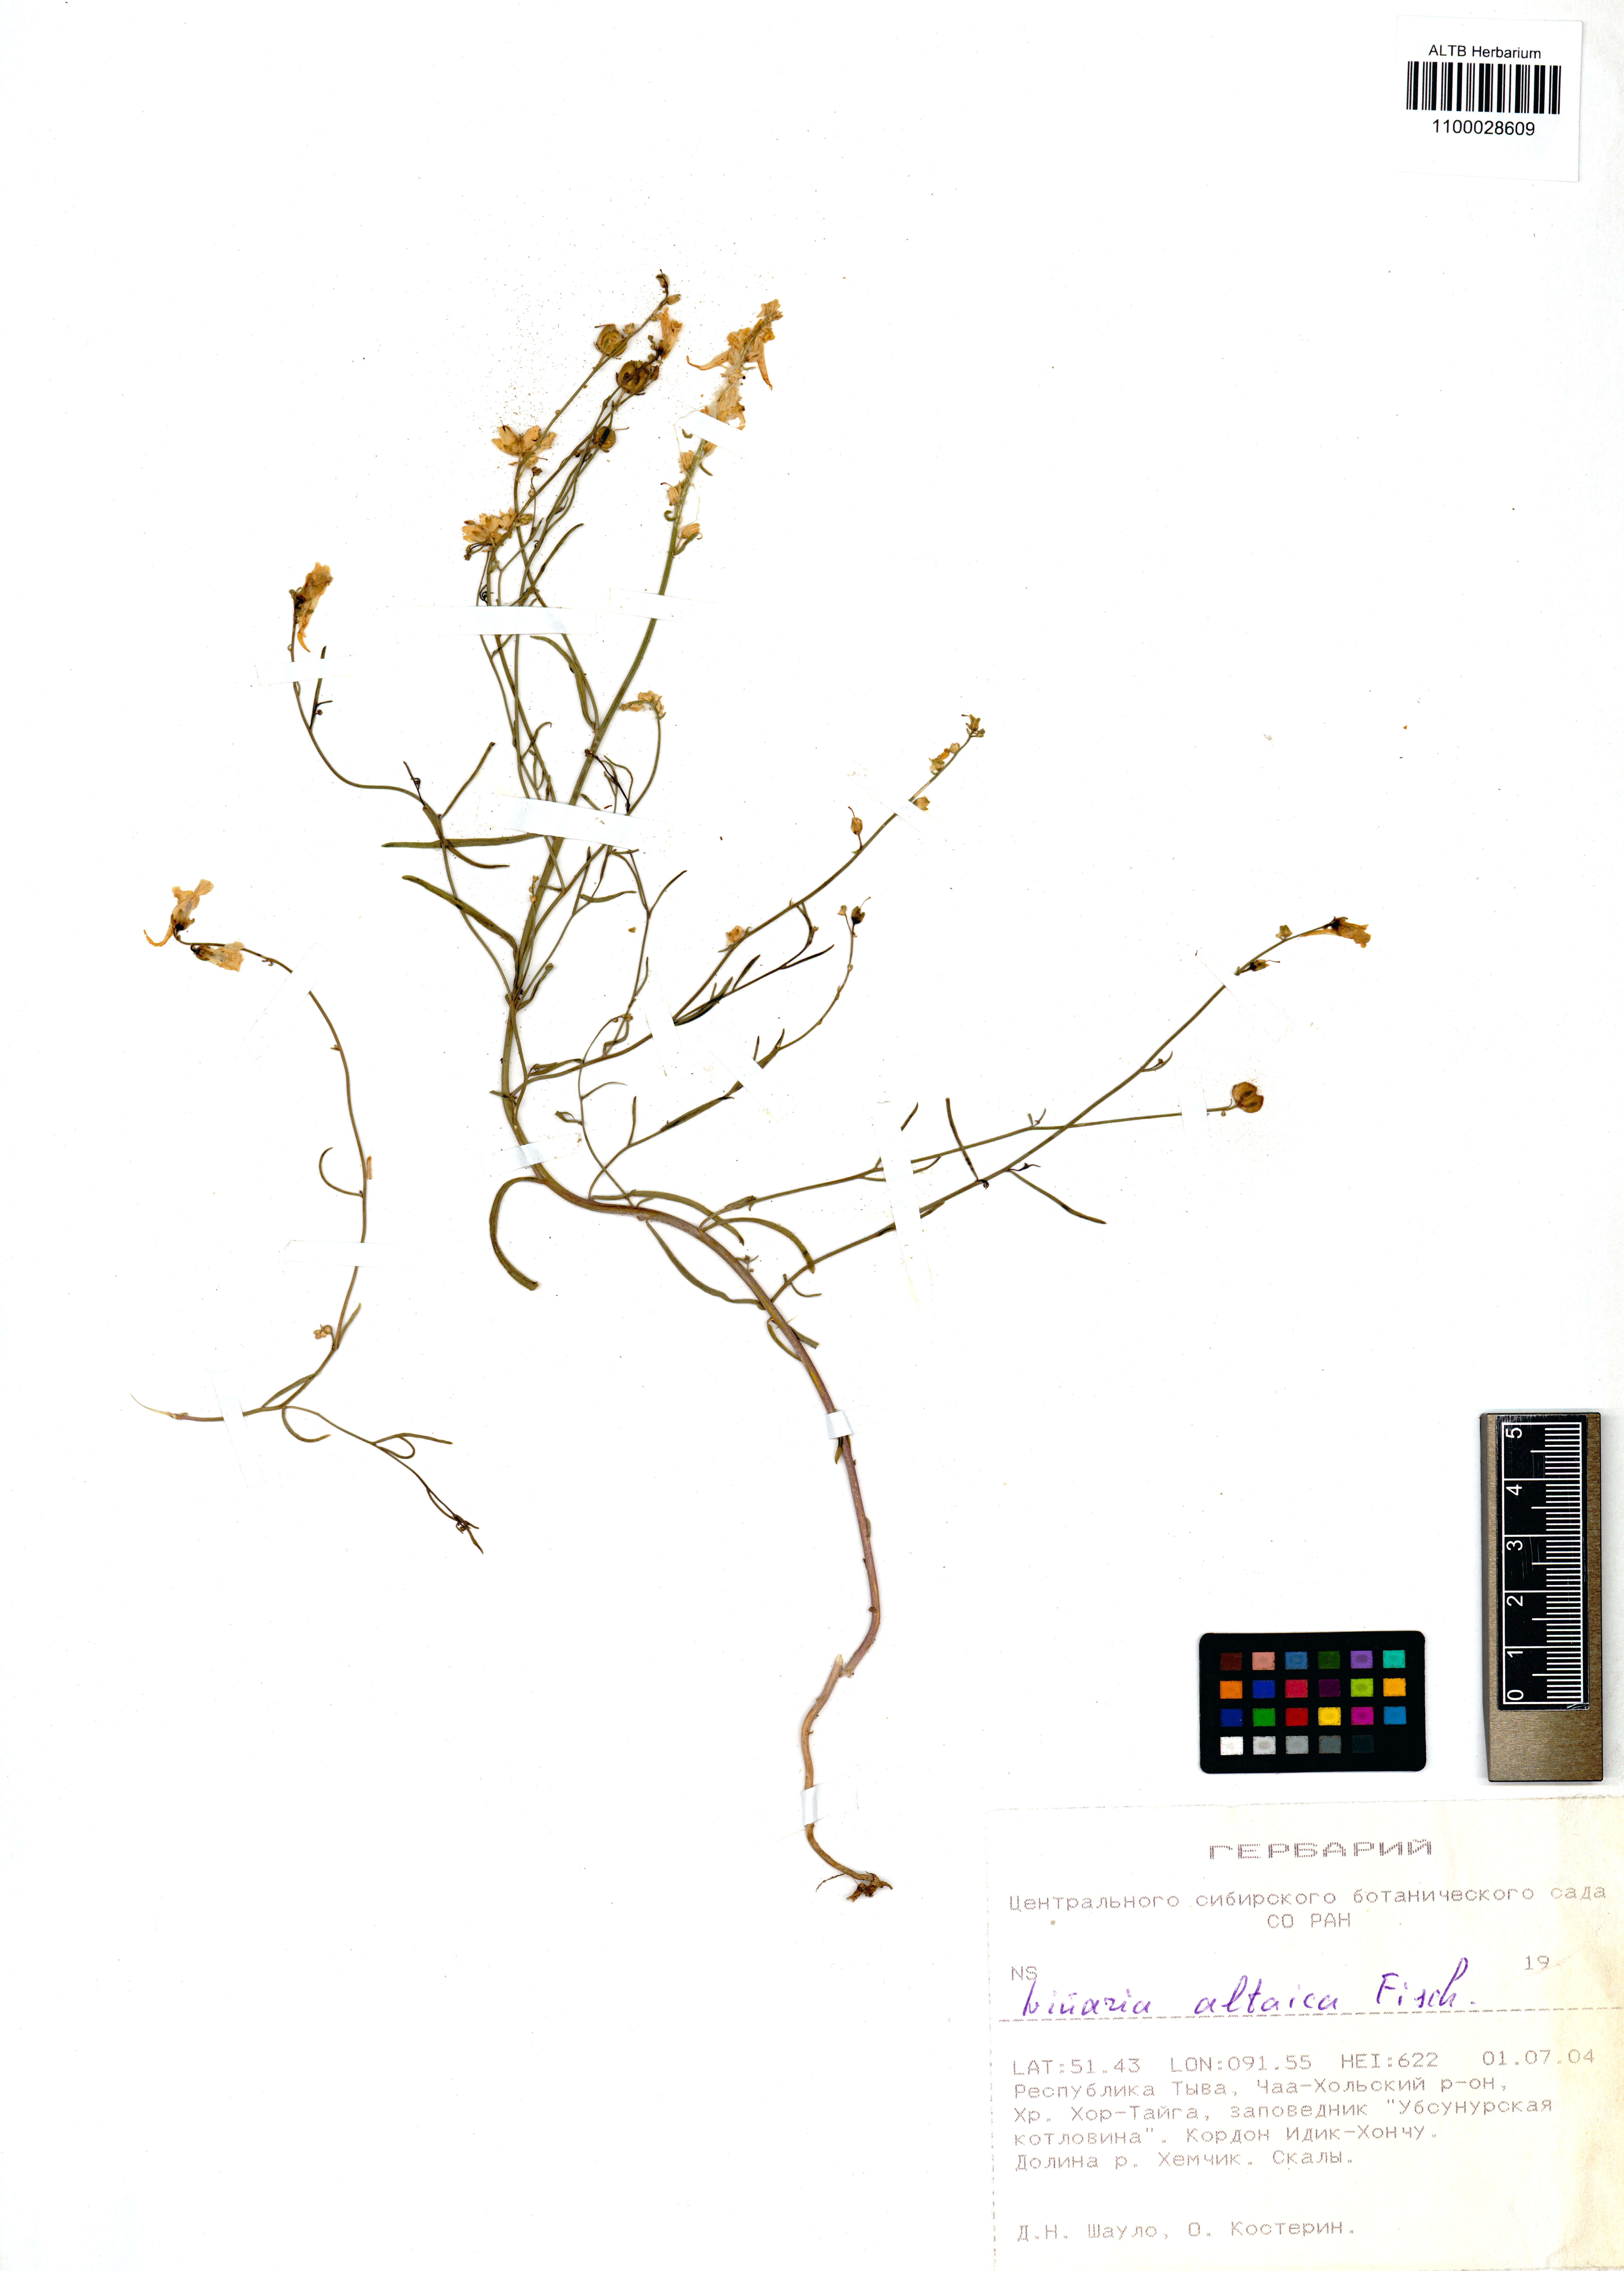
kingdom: Plantae
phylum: Tracheophyta
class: Magnoliopsida
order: Lamiales
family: Plantaginaceae
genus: Linaria
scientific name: Linaria altaica
